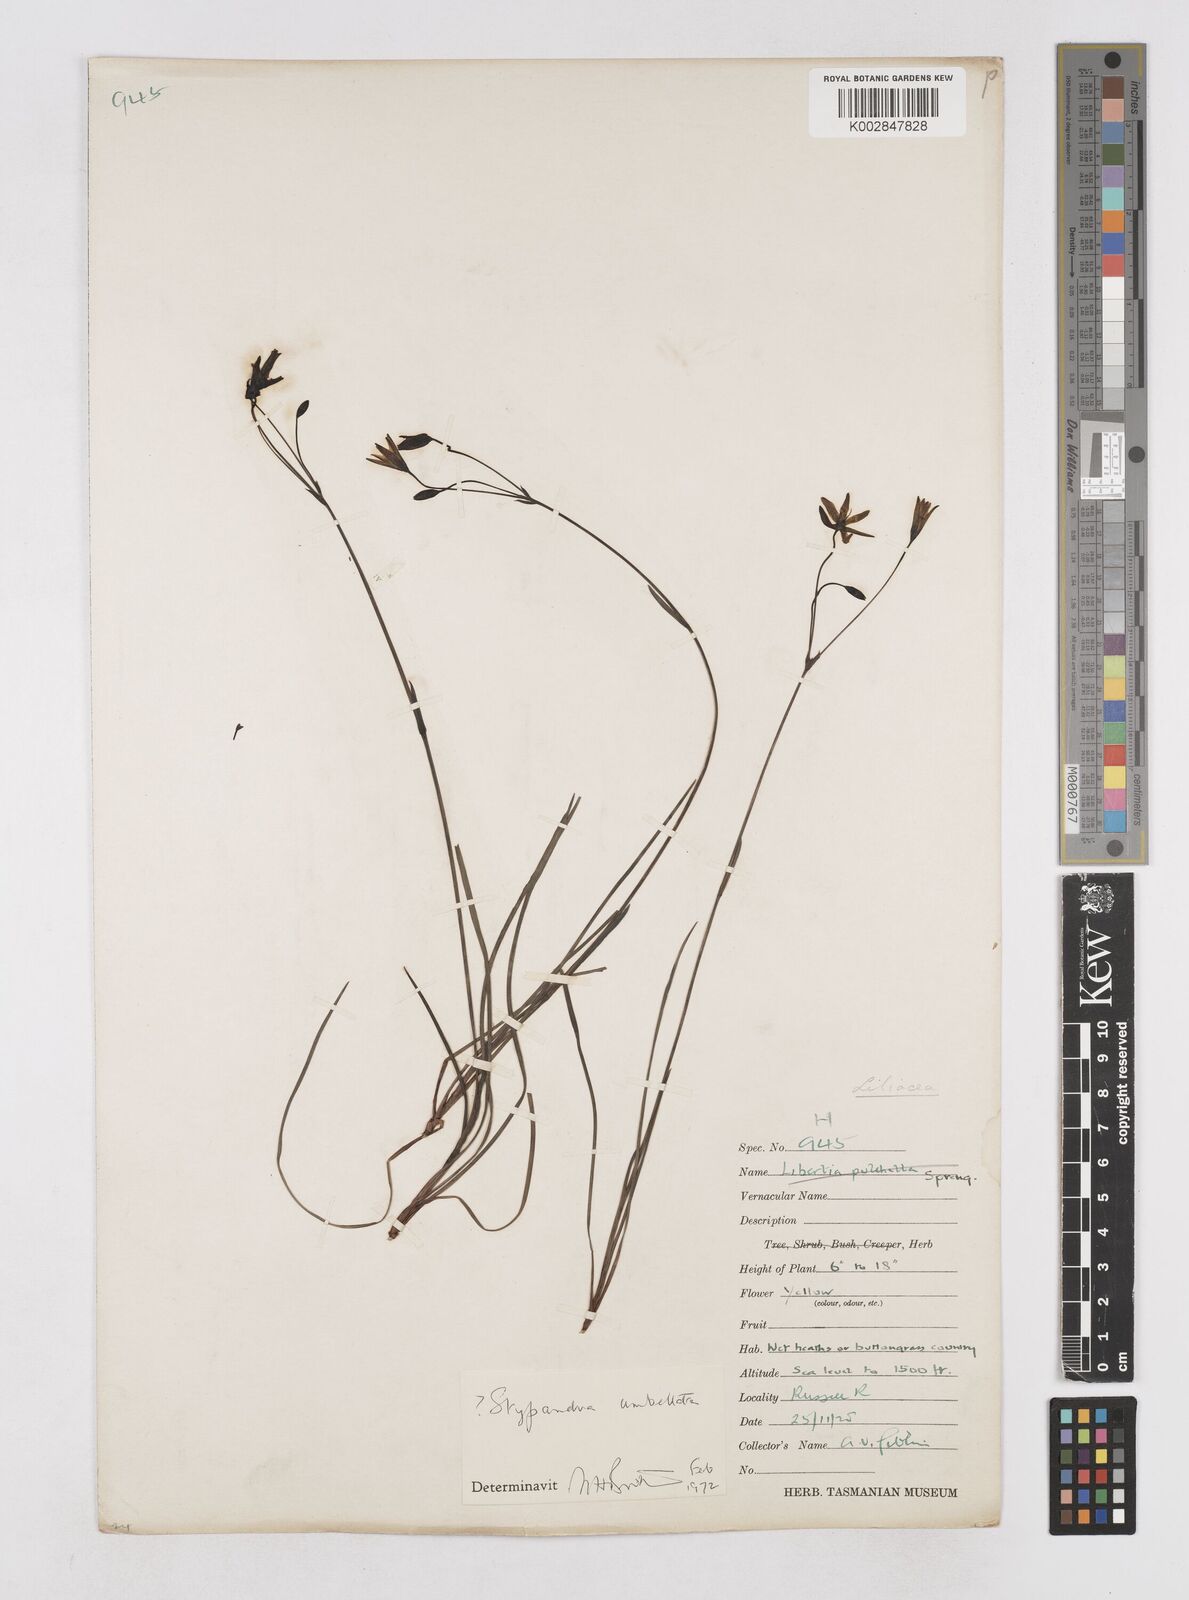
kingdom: Plantae
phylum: Tracheophyta
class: Liliopsida
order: Asparagales
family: Asphodelaceae
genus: Thelionema
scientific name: Thelionema umbellatum
